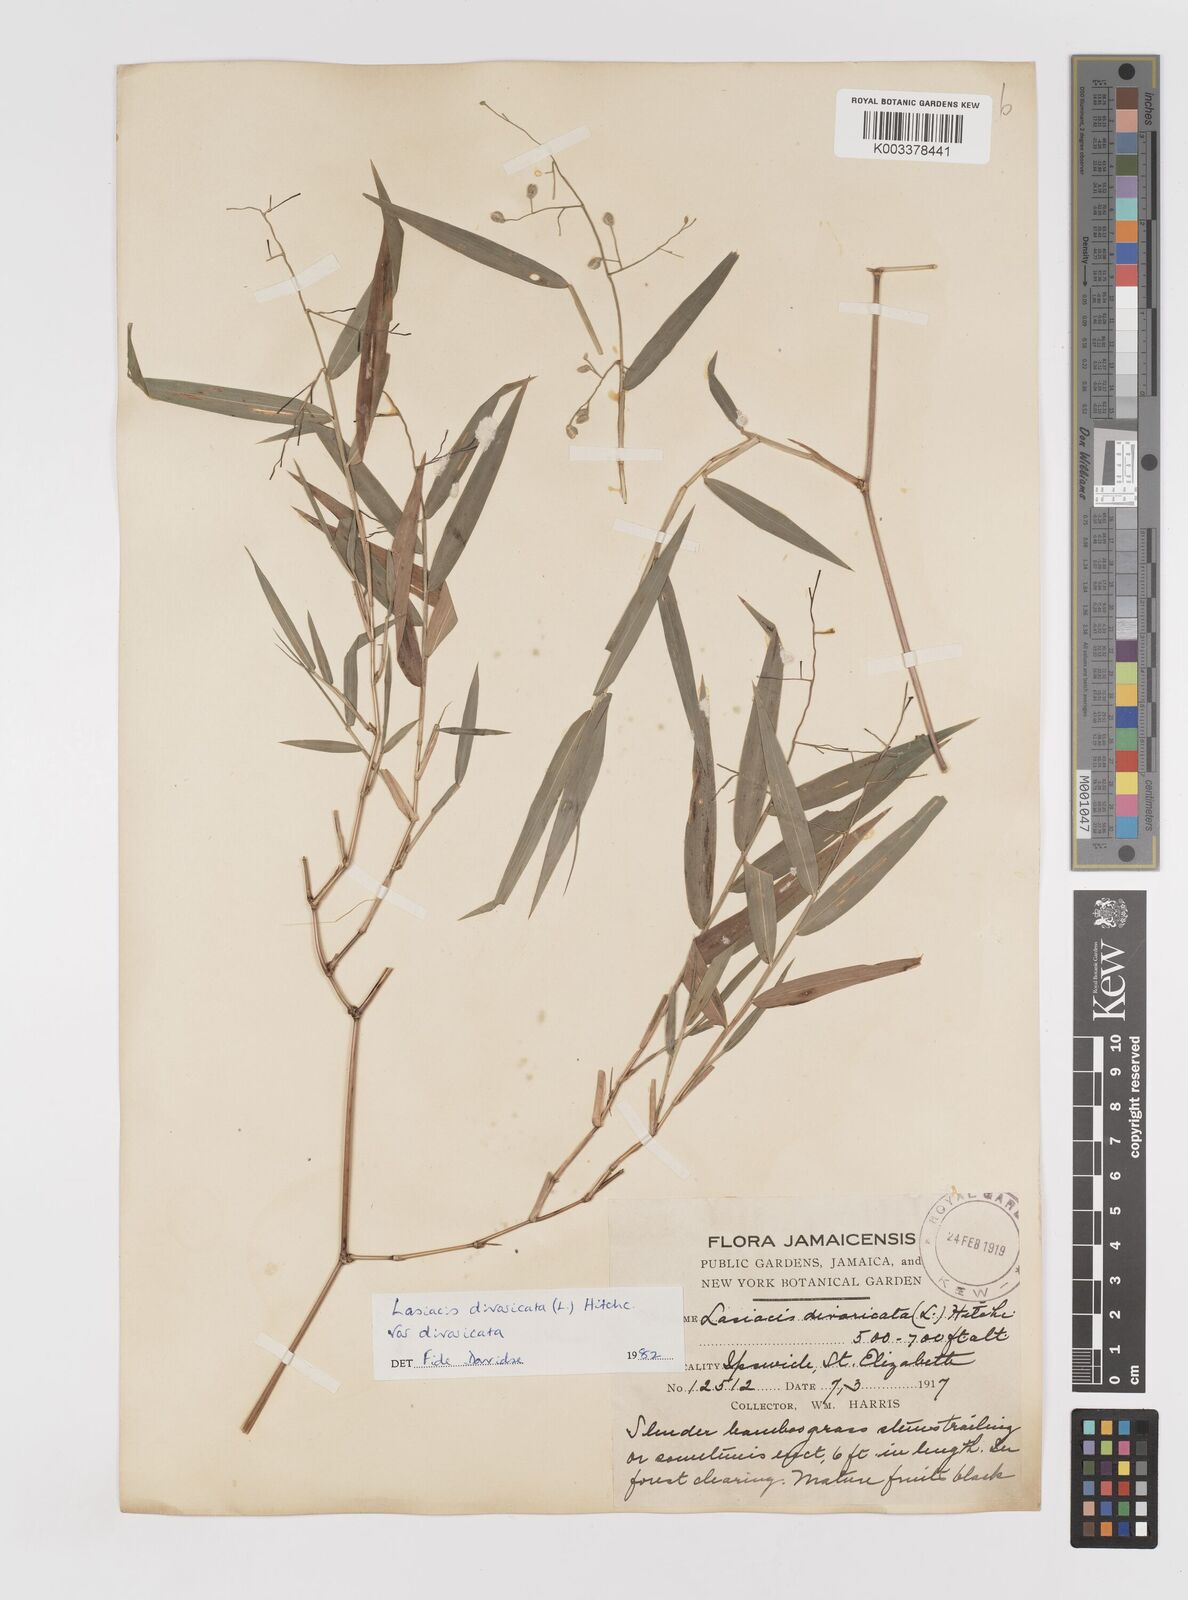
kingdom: Plantae
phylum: Tracheophyta
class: Liliopsida
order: Poales
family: Poaceae
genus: Lasiacis
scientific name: Lasiacis divaricata
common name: Smallcane
